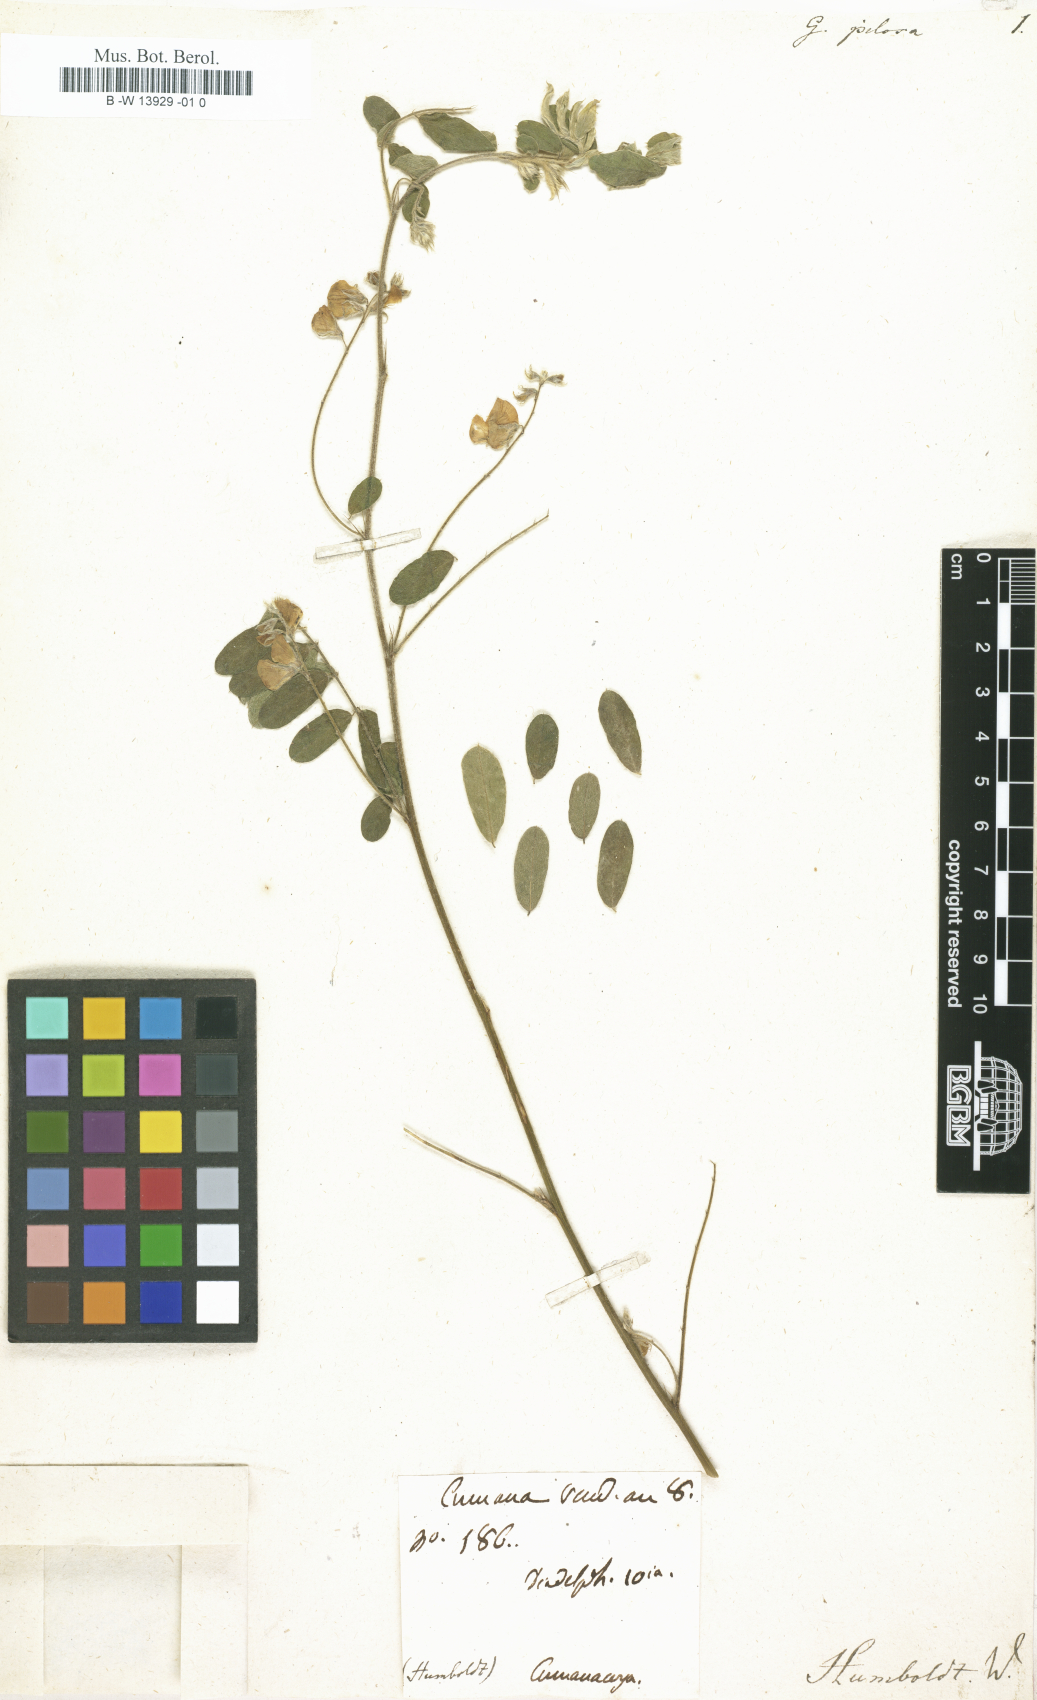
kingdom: Plantae
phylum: Tracheophyta
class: Magnoliopsida
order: Fabales
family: Fabaceae
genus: Galega
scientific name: Galega
